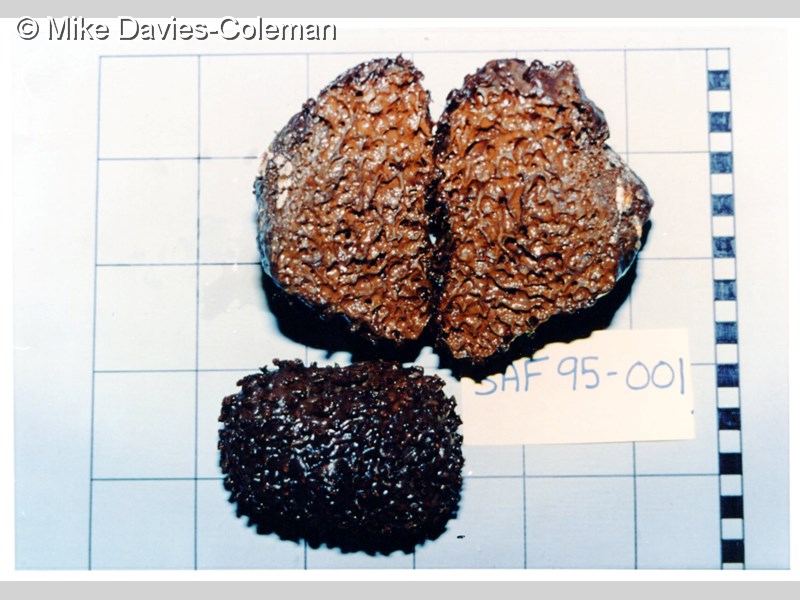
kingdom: Animalia
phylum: Porifera
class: Demospongiae
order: Poecilosclerida
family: Latrunculiidae
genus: Tsitsikamma
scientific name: Tsitsikamma favus
